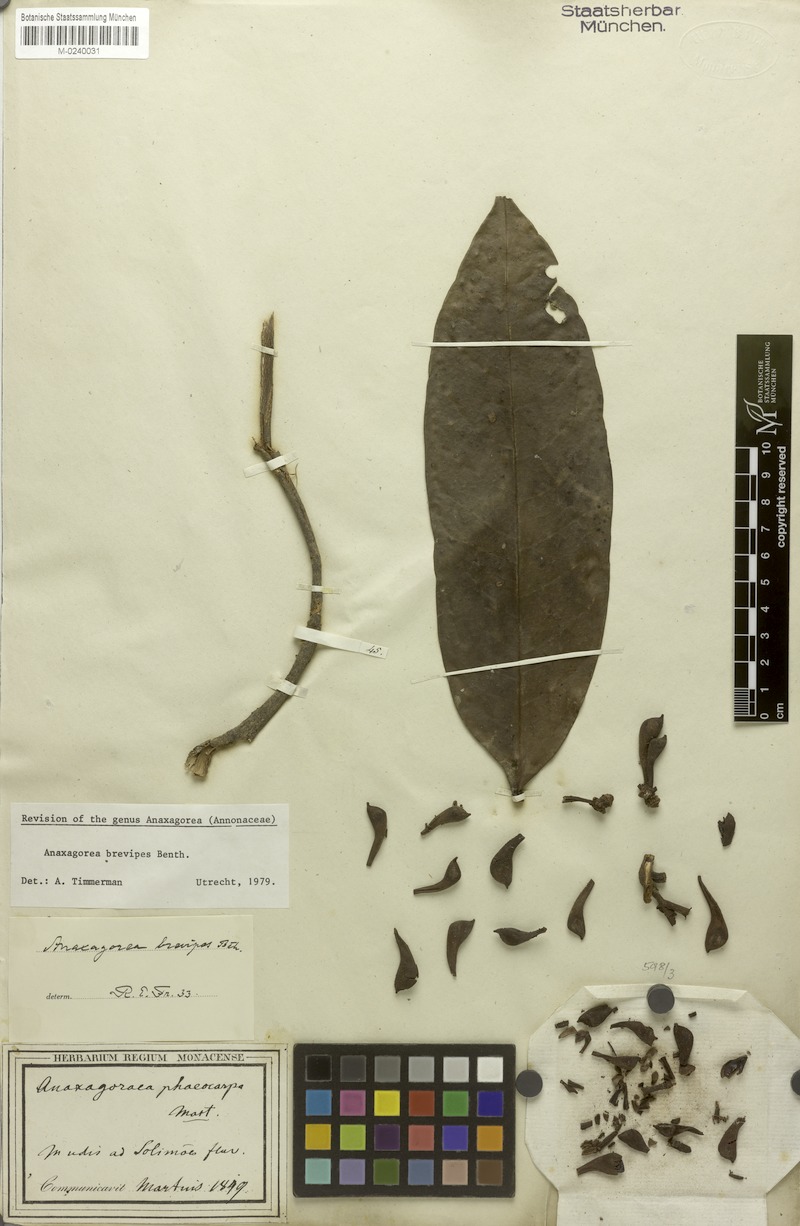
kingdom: Plantae
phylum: Tracheophyta
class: Magnoliopsida
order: Magnoliales
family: Annonaceae
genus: Anaxagorea
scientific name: Anaxagorea brevipes
